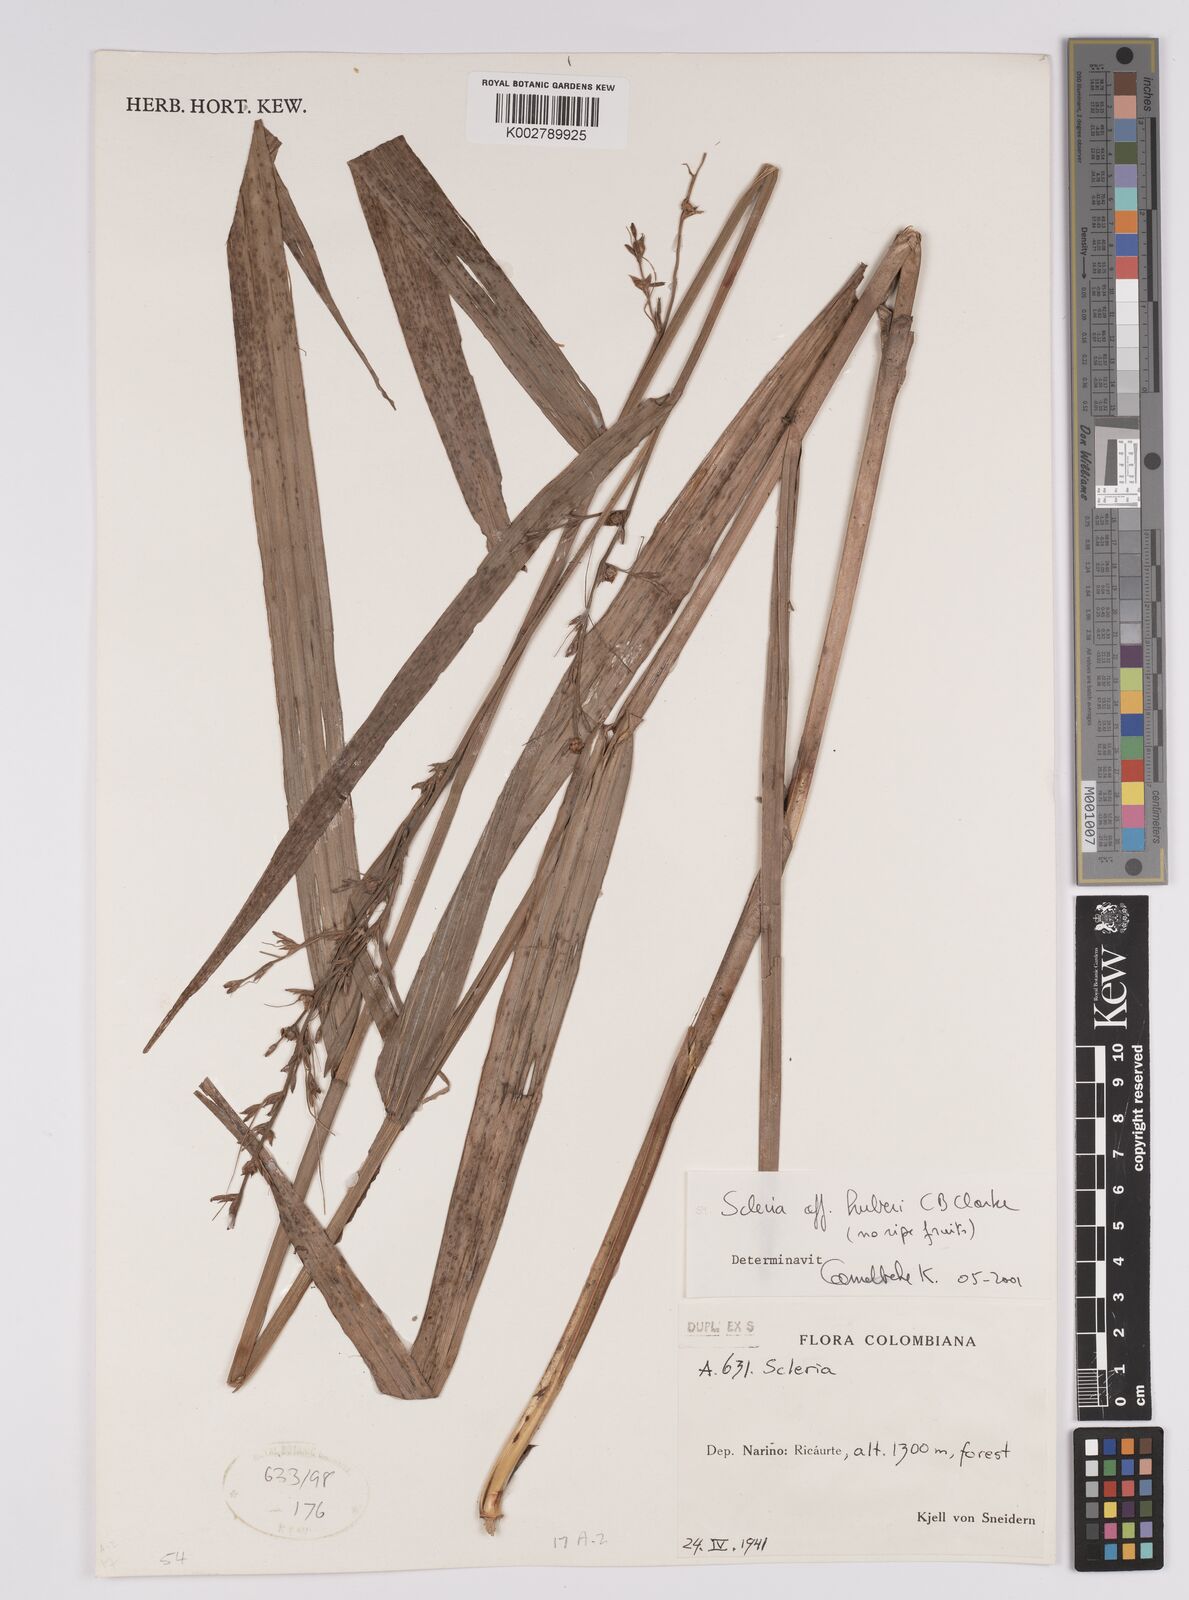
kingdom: Plantae
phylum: Tracheophyta
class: Liliopsida
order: Poales
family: Cyperaceae
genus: Scleria
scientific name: Scleria huberi
